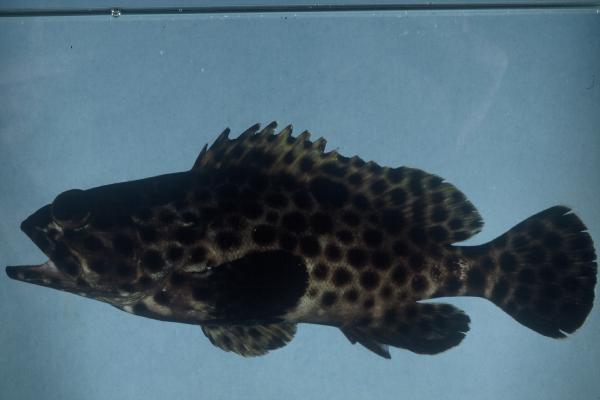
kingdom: Animalia
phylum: Chordata
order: Perciformes
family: Serranidae
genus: Epinephelus
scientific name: Epinephelus howlandi
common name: Blacksaddle grouper
